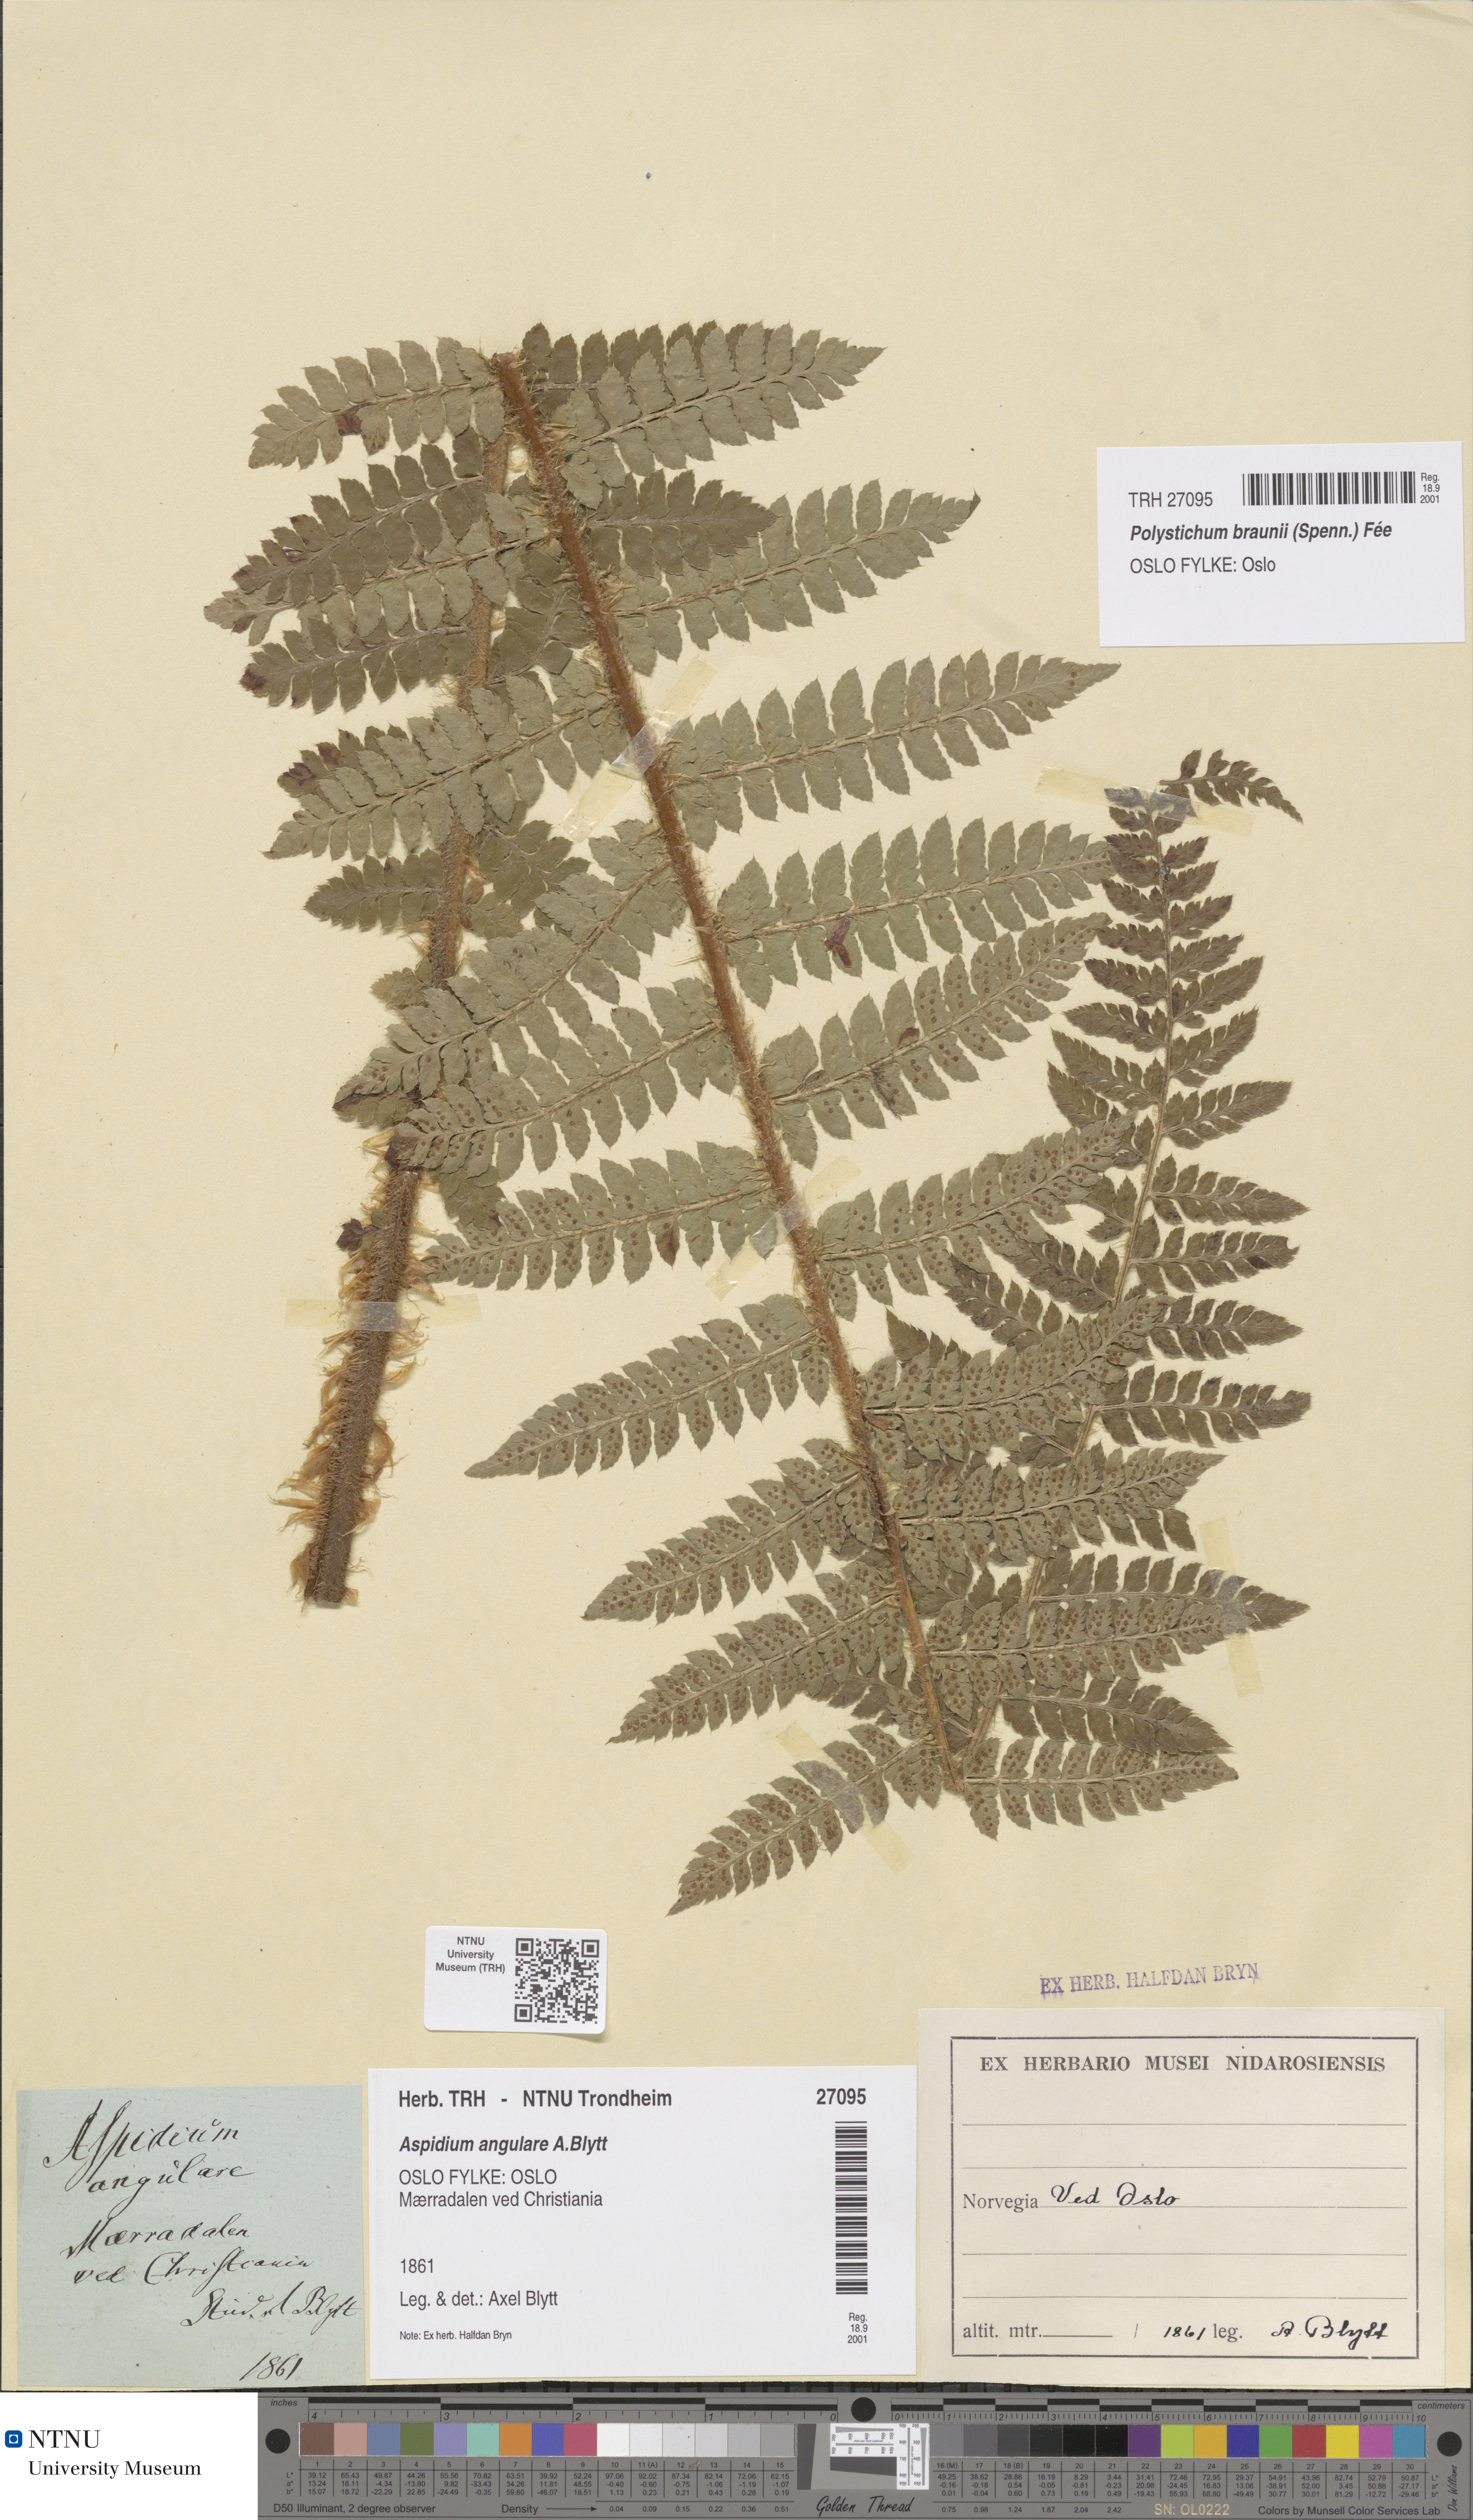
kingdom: Plantae
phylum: Tracheophyta
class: Polypodiopsida
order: Polypodiales
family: Dryopteridaceae
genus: Polystichum
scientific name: Polystichum braunii
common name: Braun's holly fern
